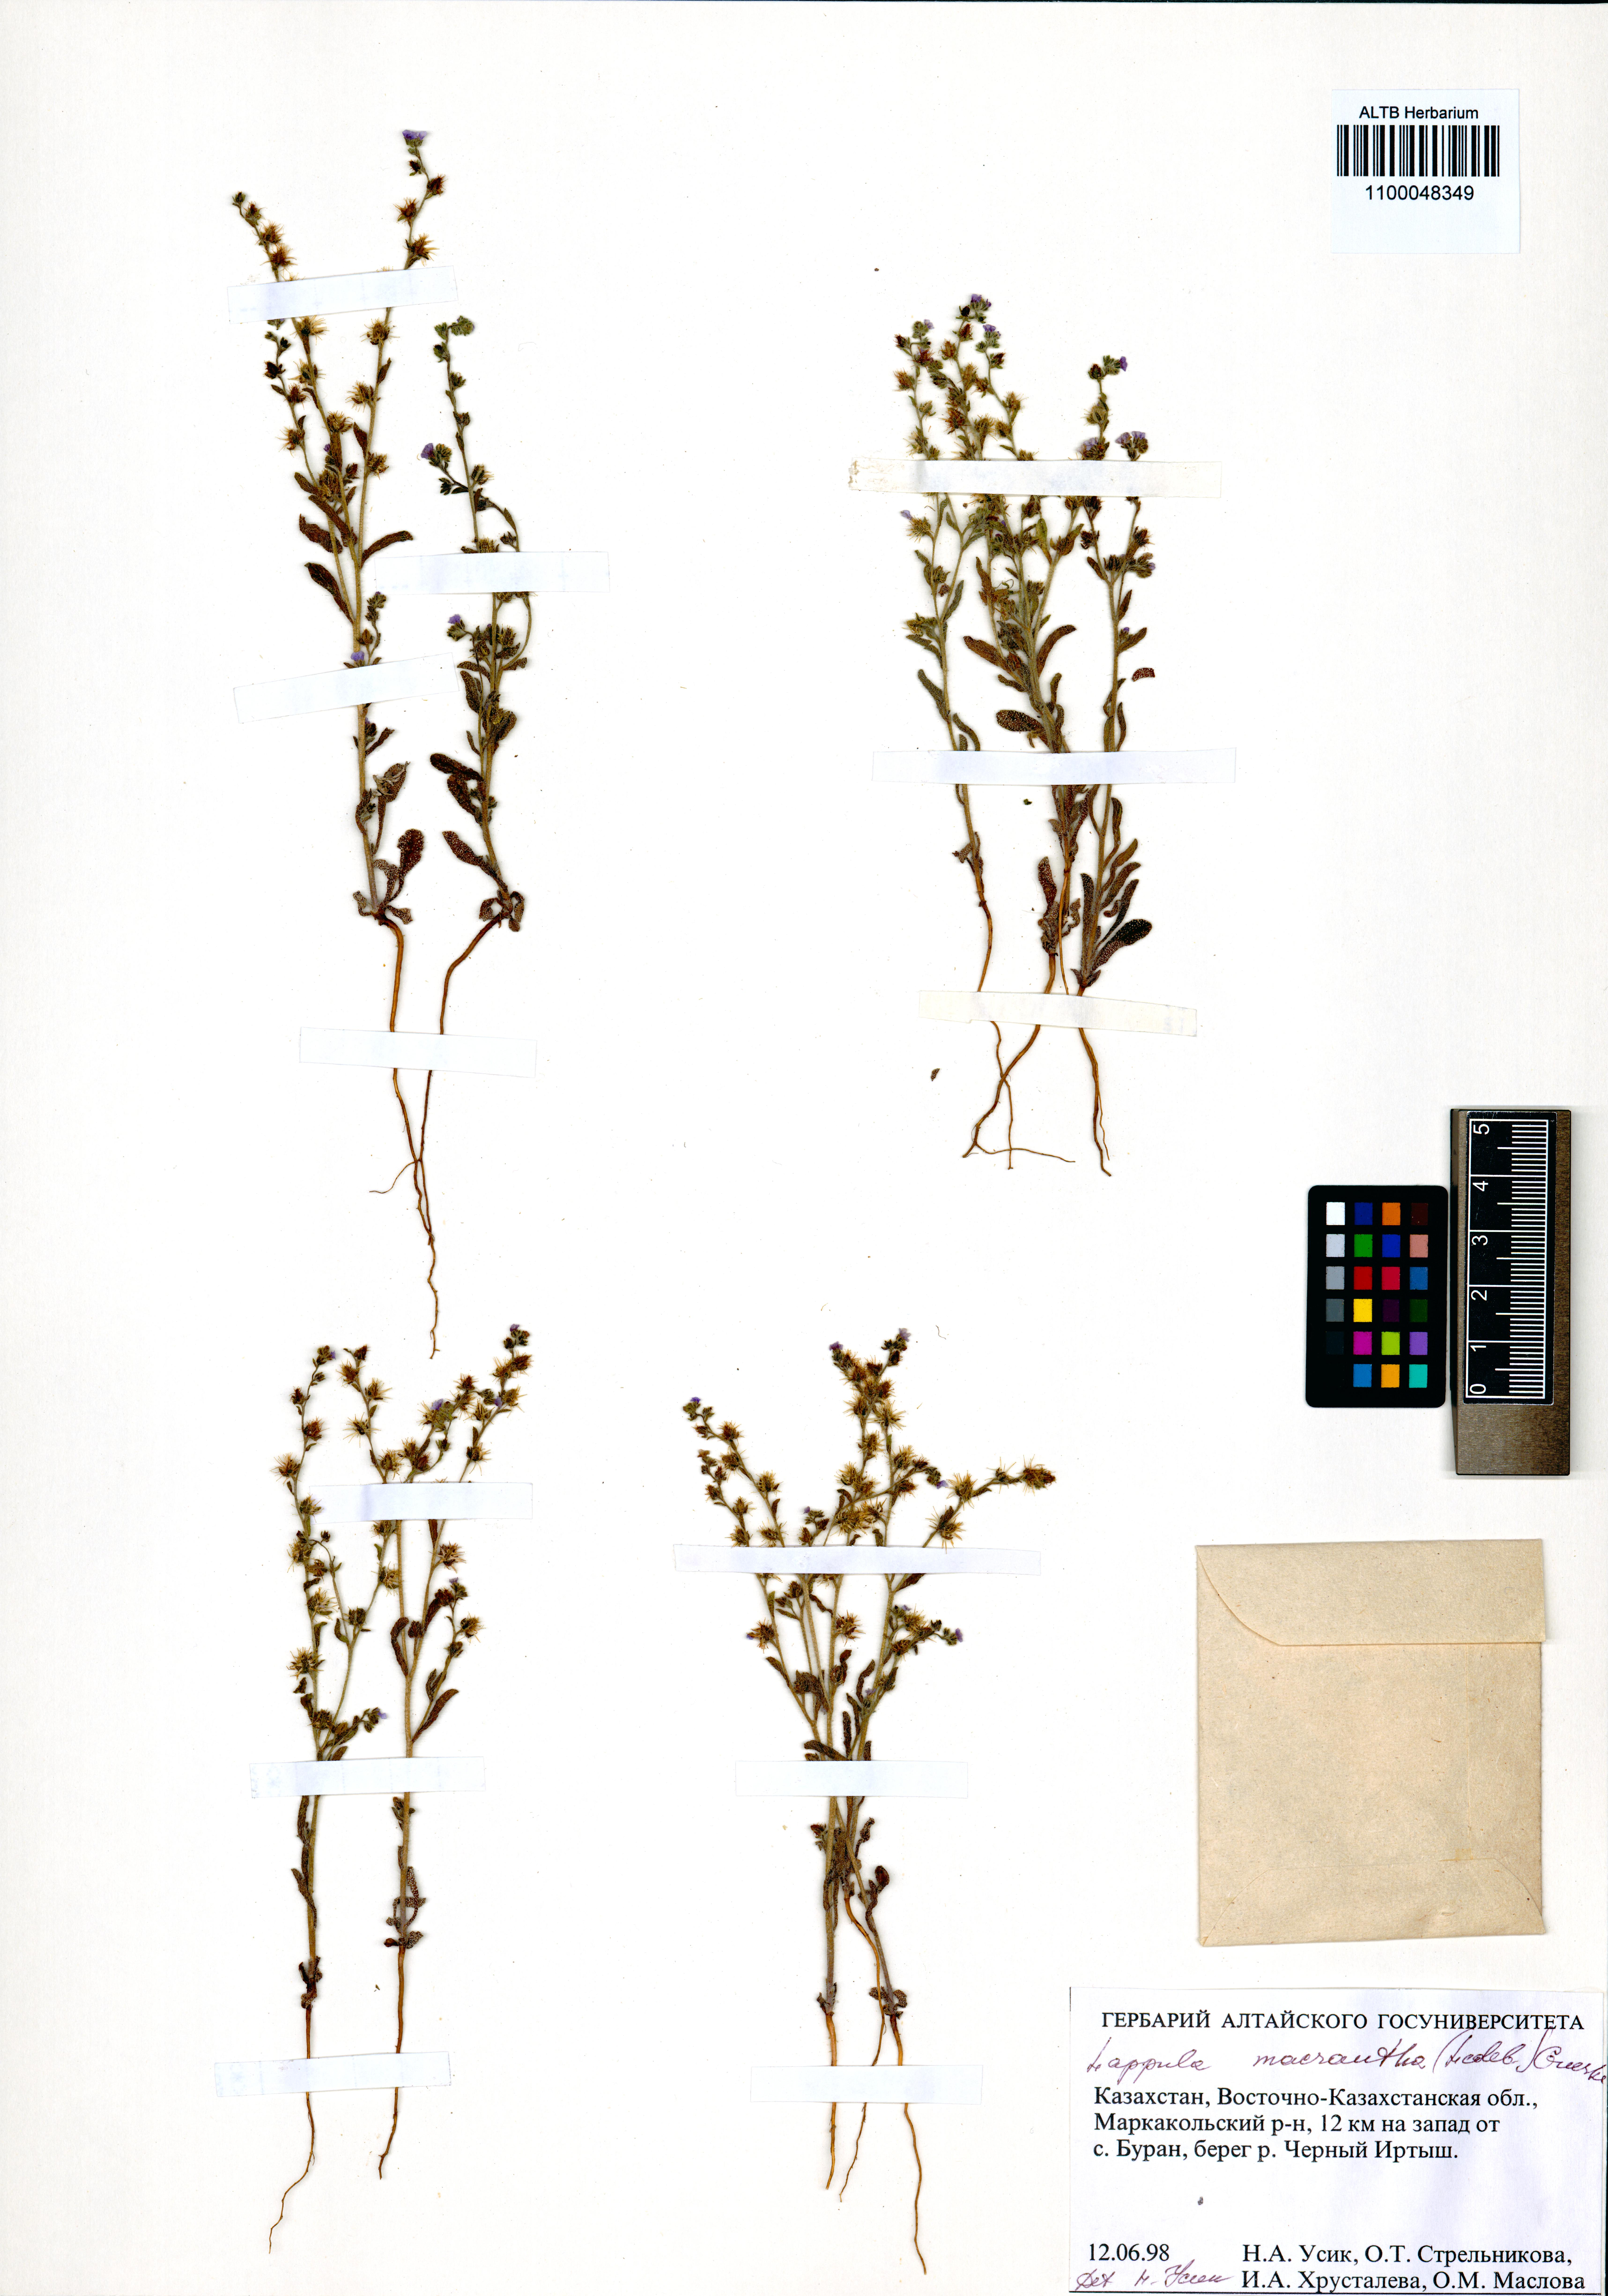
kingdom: Plantae
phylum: Tracheophyta
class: Magnoliopsida
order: Boraginales
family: Boraginaceae
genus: Lappula
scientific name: Lappula macrantha
